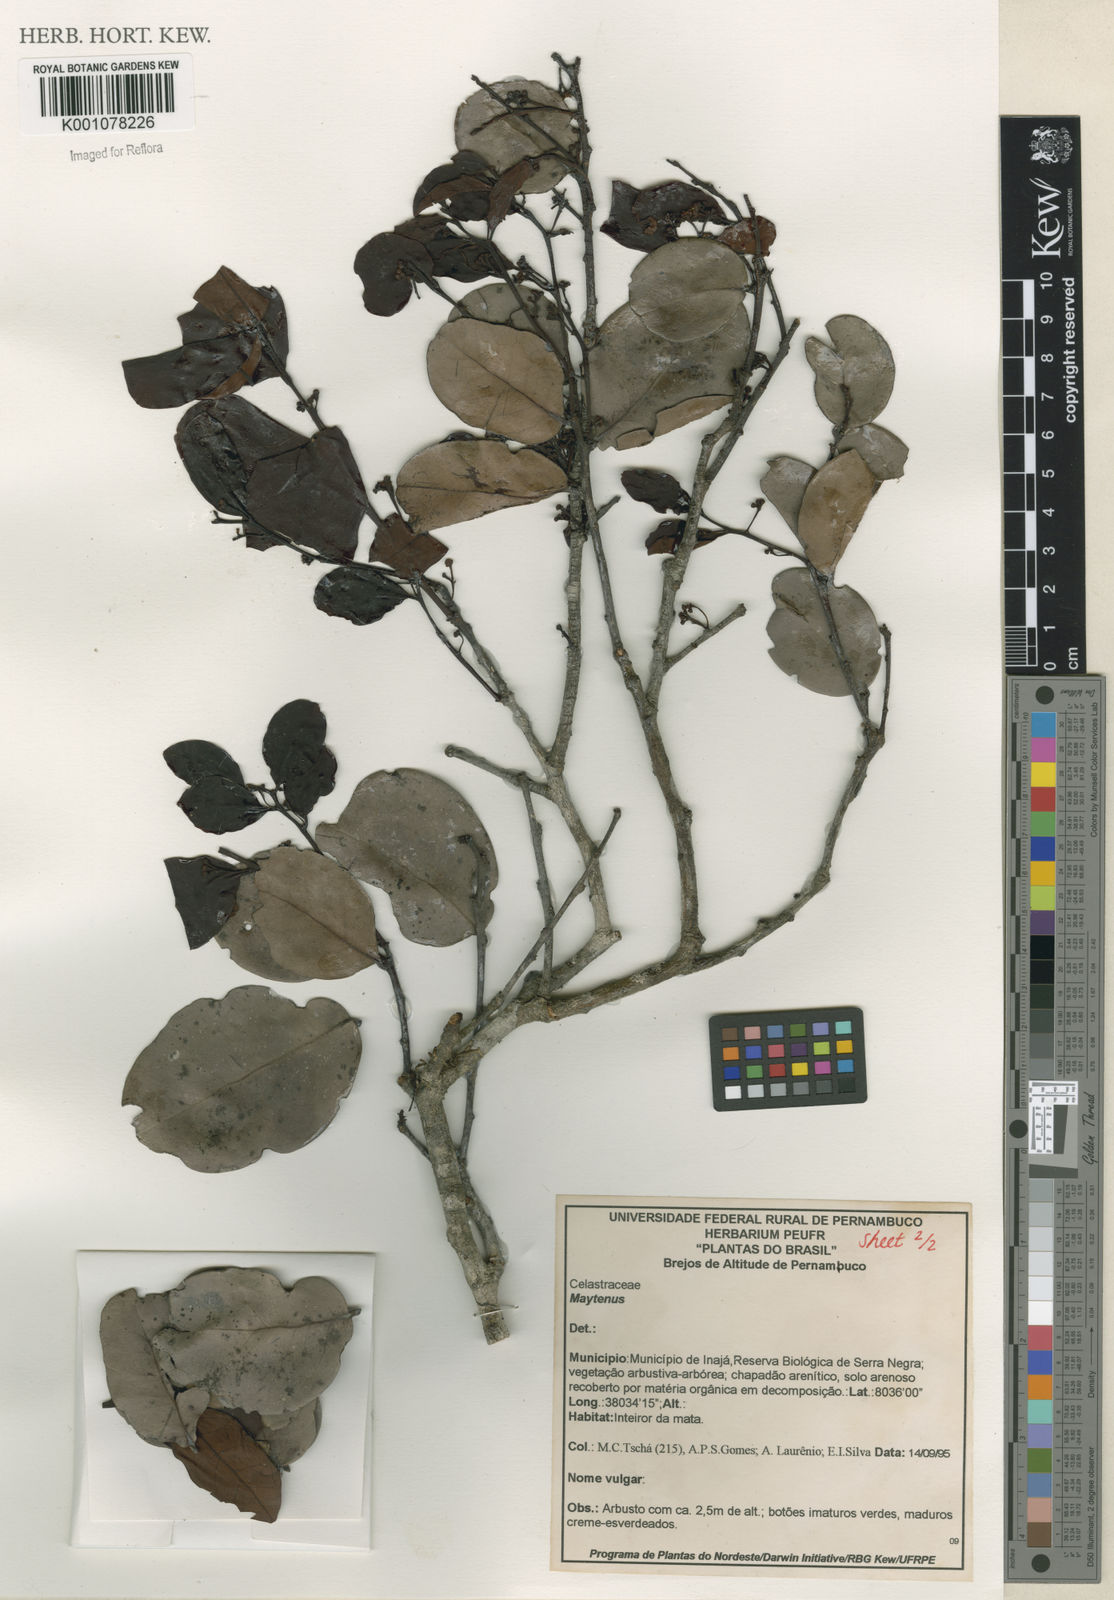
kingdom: Plantae
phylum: Tracheophyta
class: Magnoliopsida
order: Celastrales
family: Celastraceae
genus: Maytenus
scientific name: Maytenus
